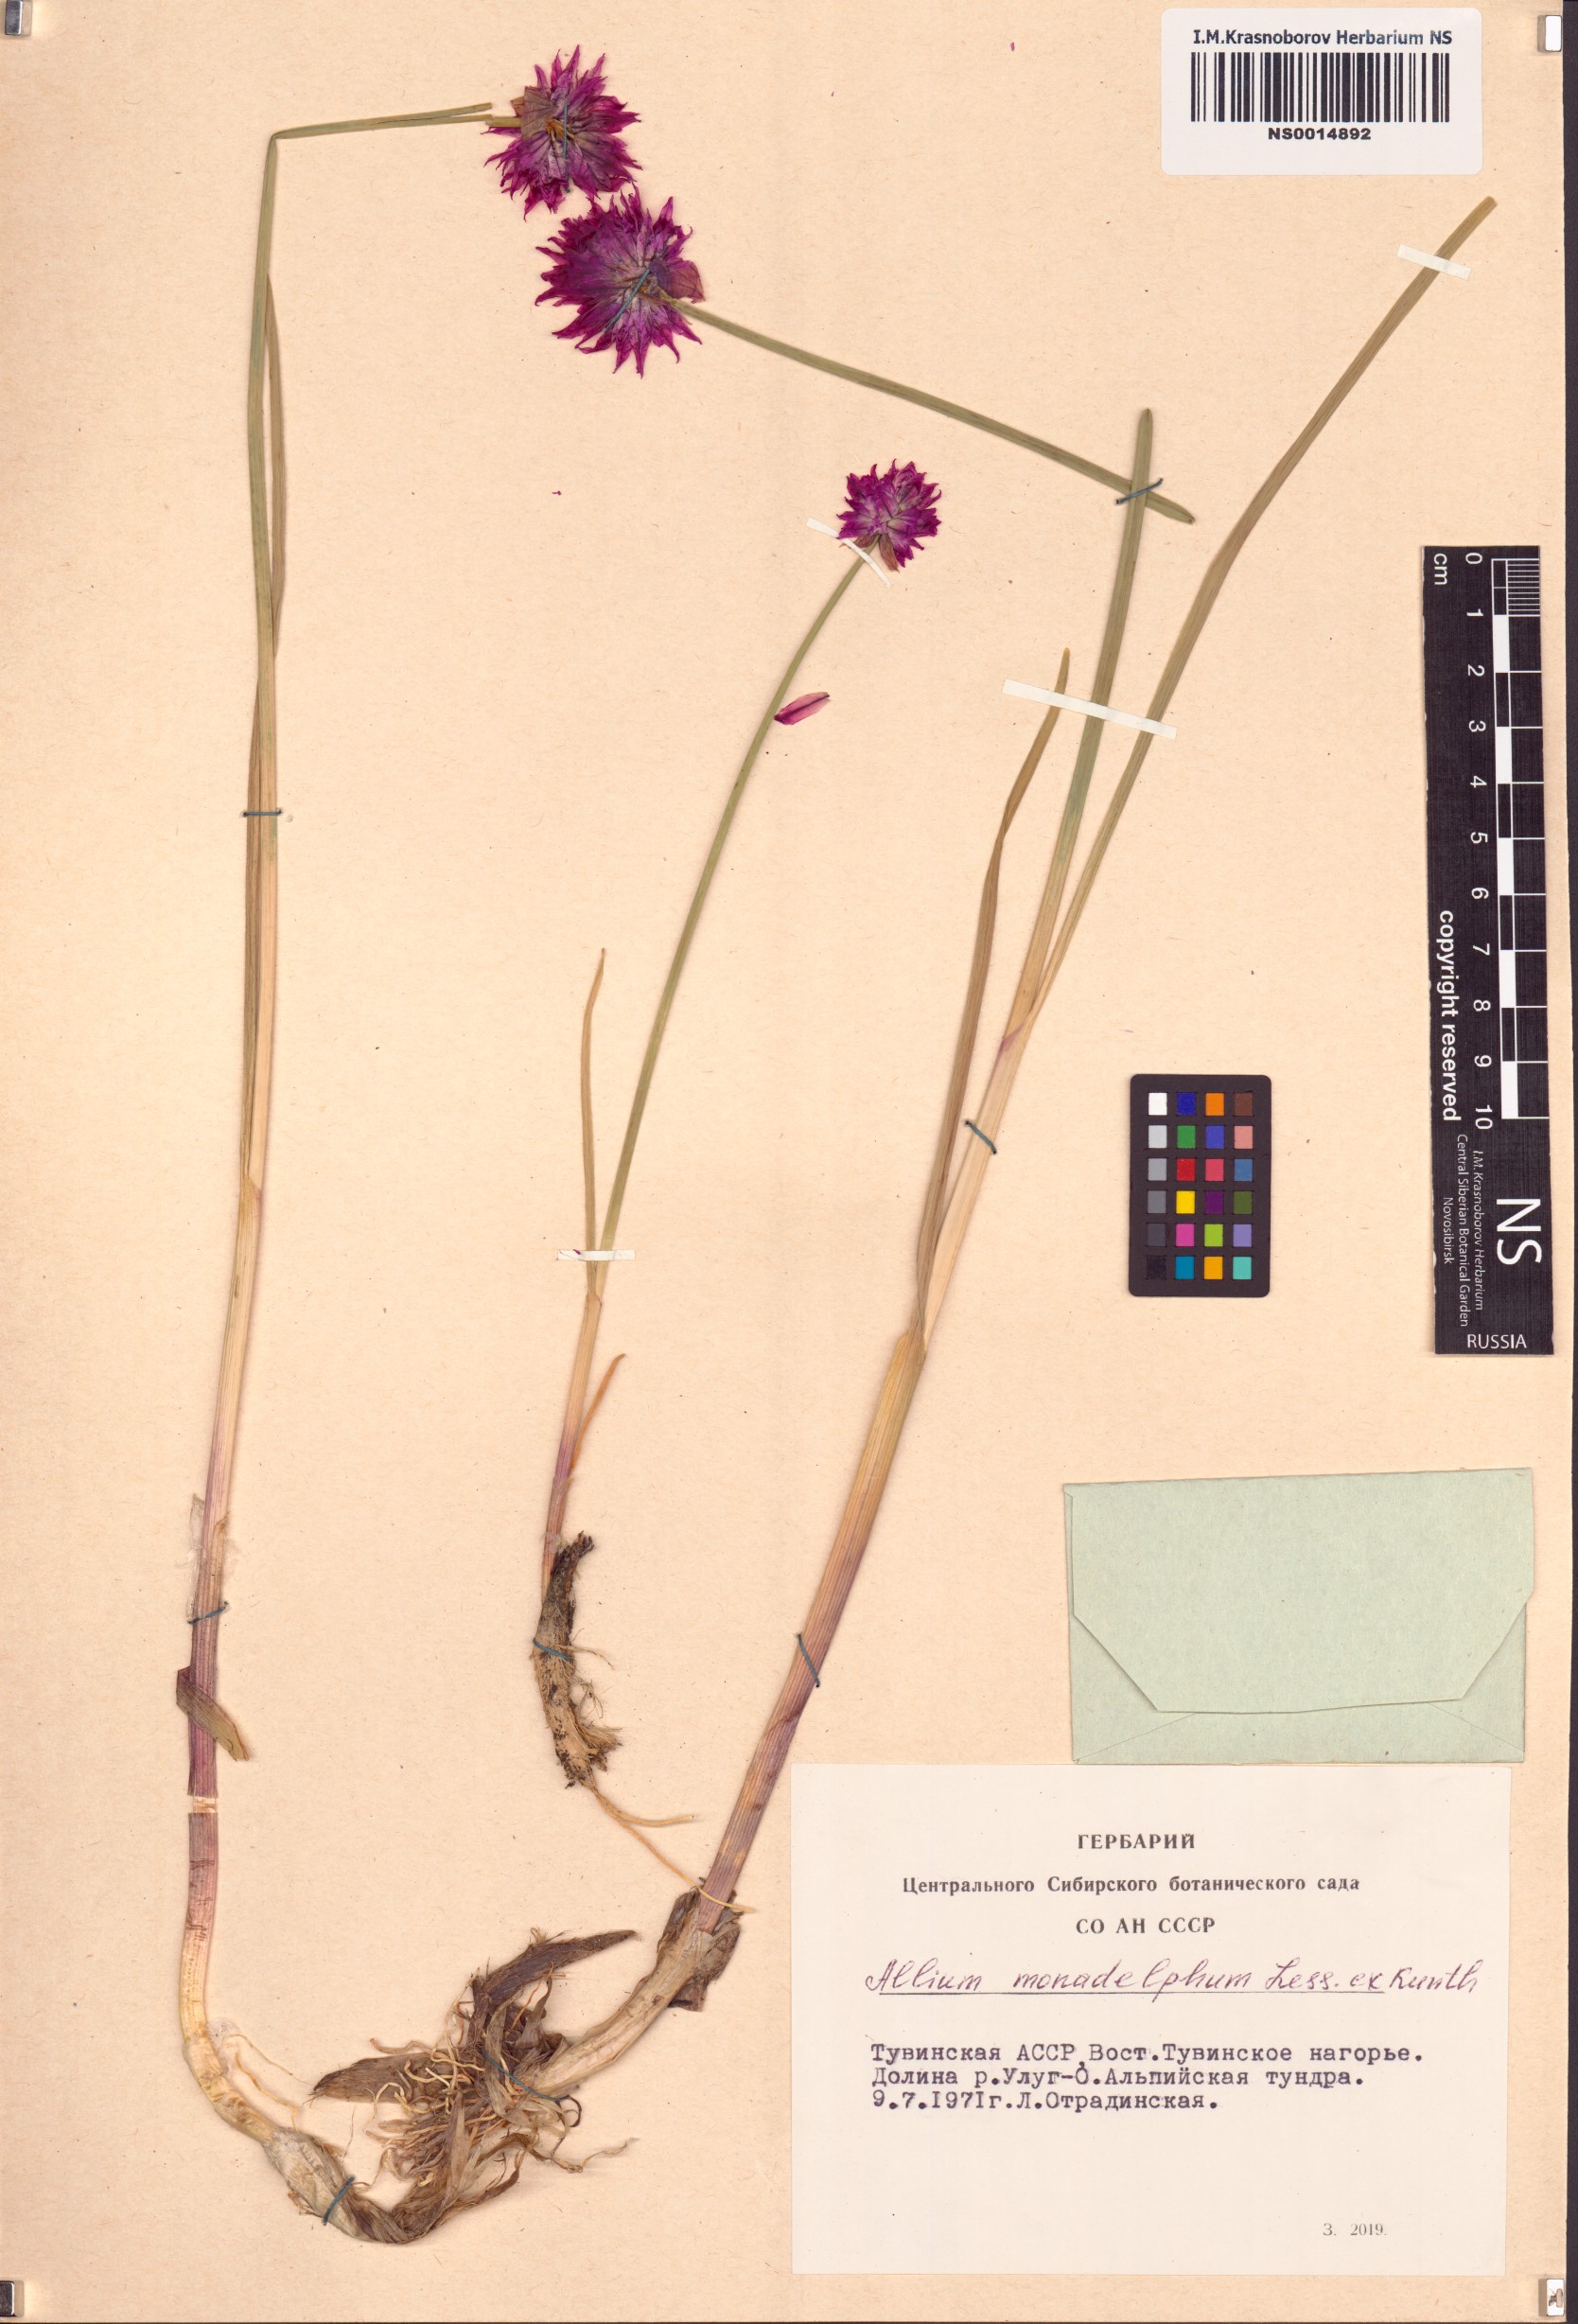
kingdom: Plantae
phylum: Tracheophyta
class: Liliopsida
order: Asparagales
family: Amaryllidaceae
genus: Allium
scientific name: Allium atrosanguineum
